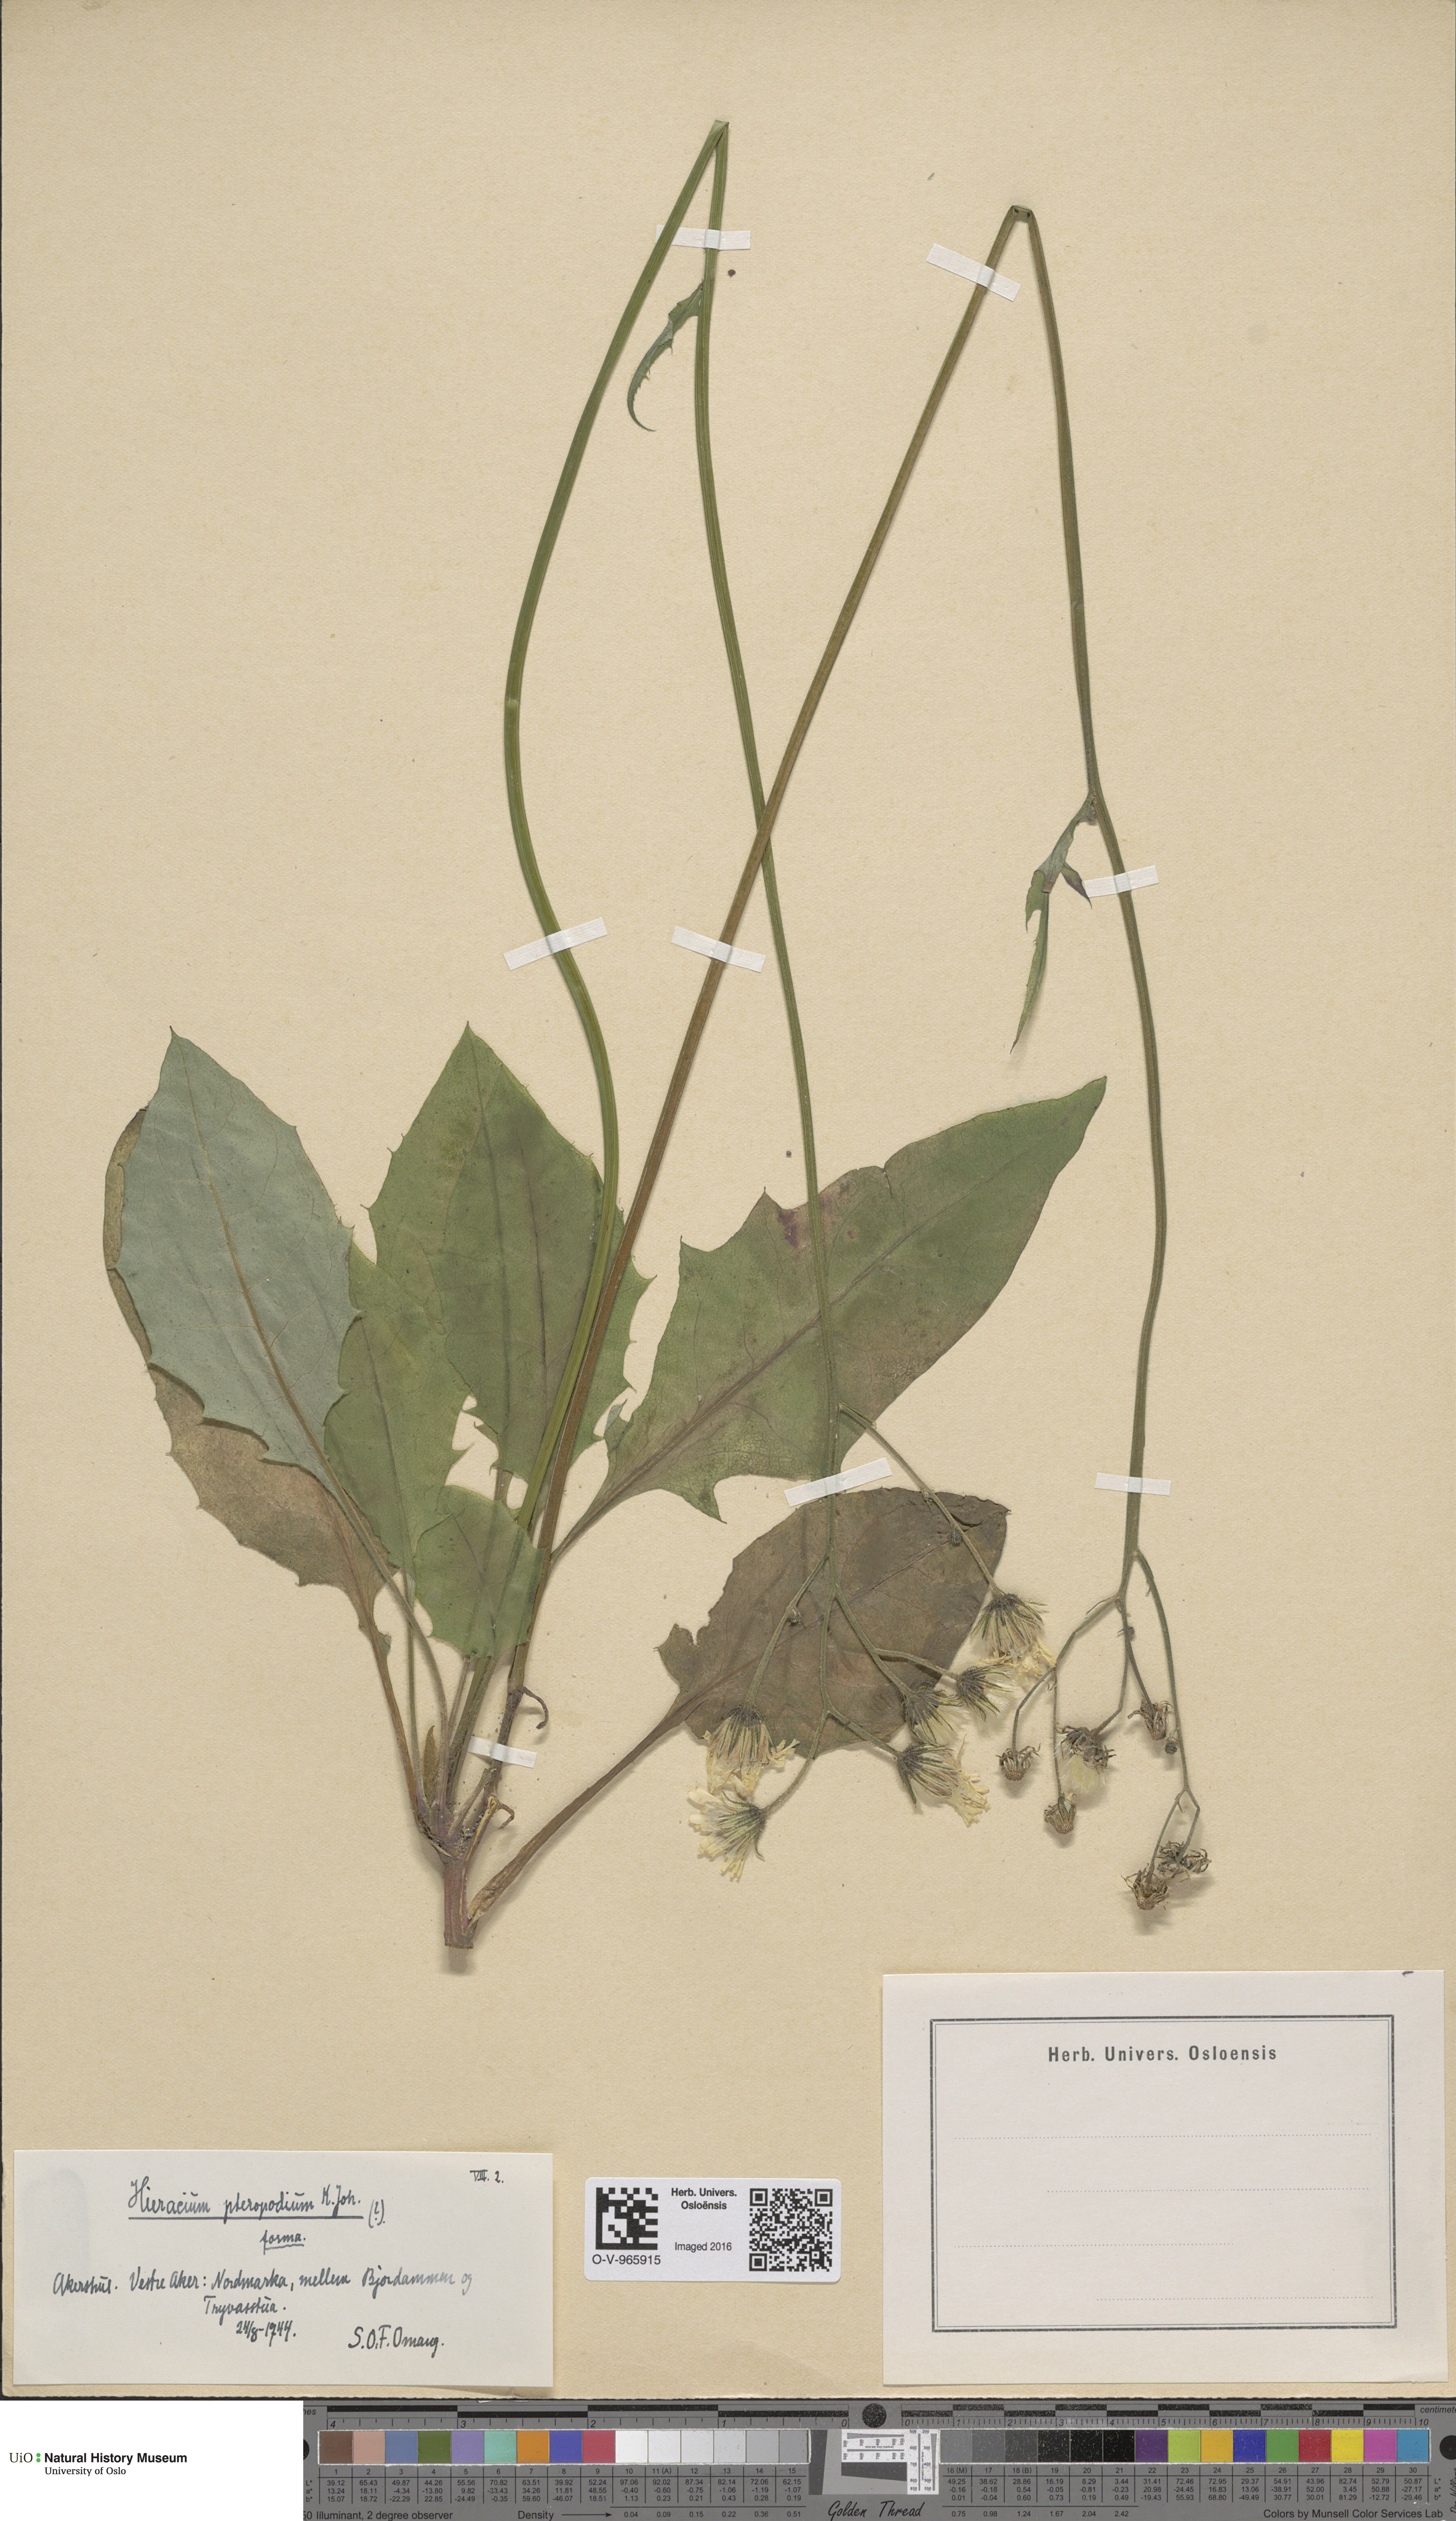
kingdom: Plantae
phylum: Tracheophyta
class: Magnoliopsida
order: Asterales
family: Asteraceae
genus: Hieracium
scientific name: Hieracium
